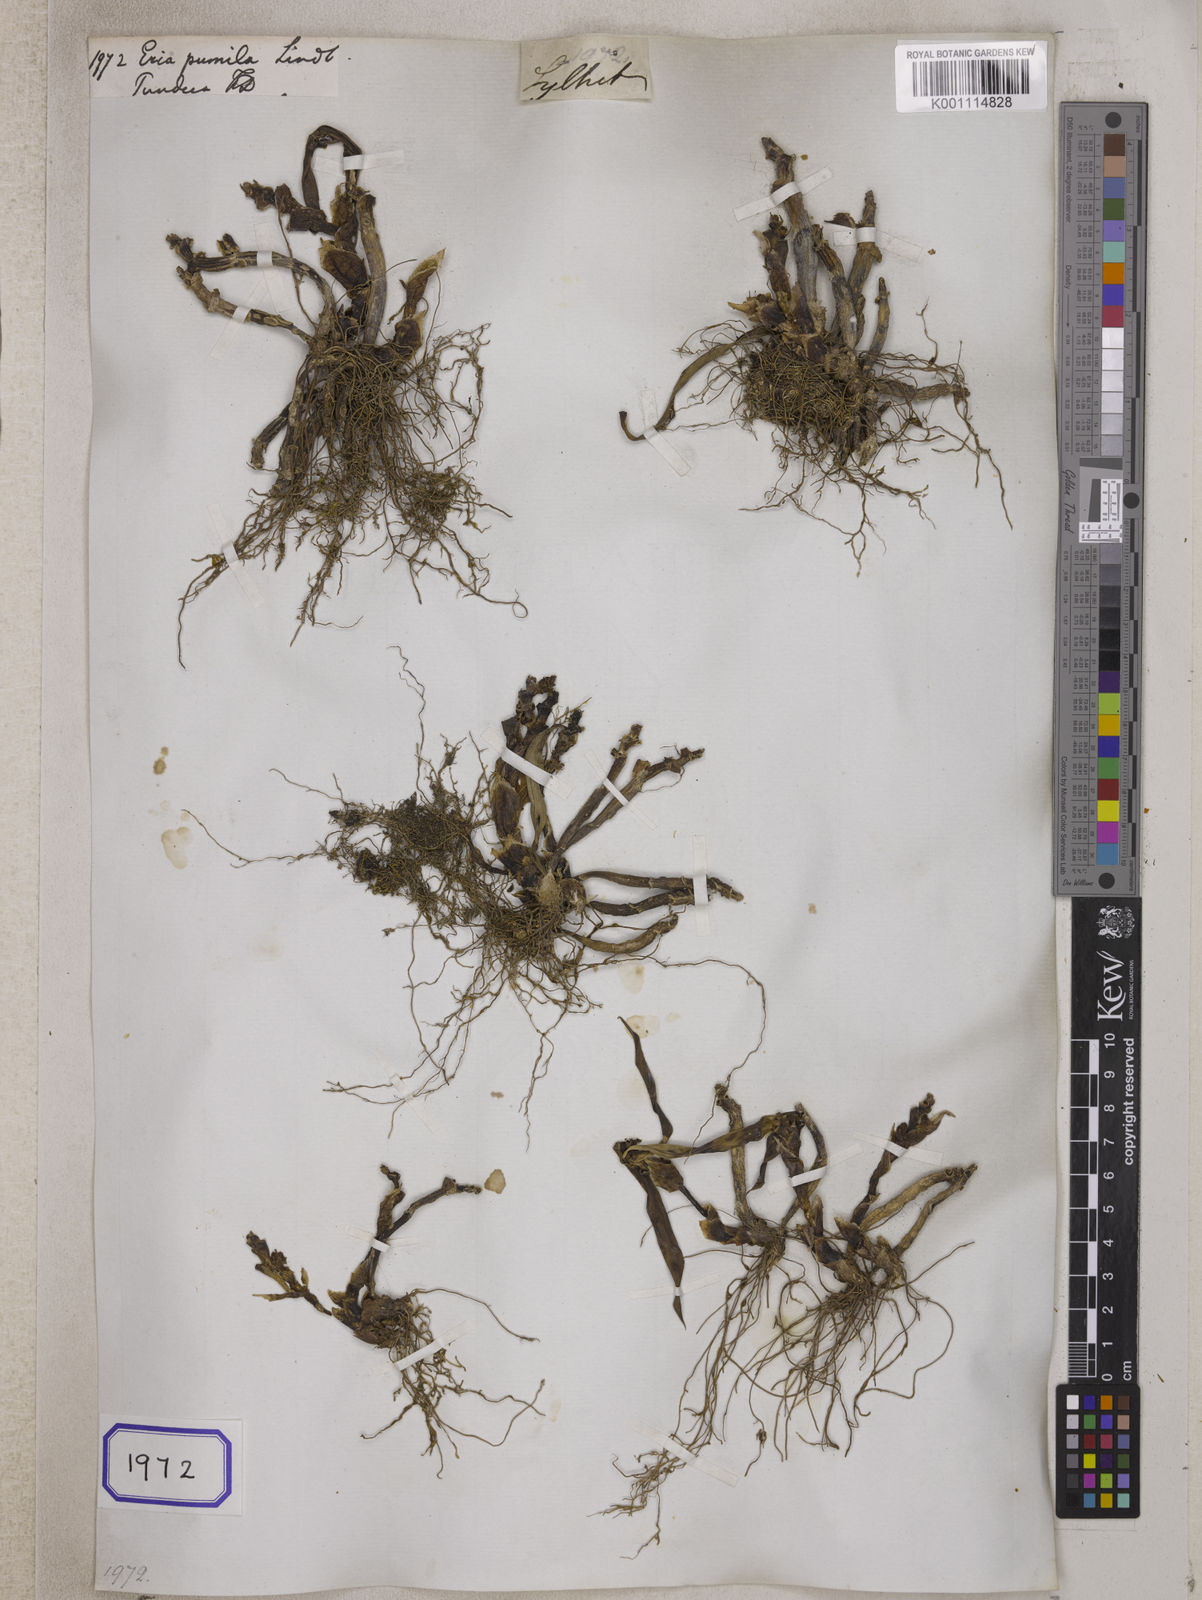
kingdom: Plantae
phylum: Tracheophyta
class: Liliopsida
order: Asparagales
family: Orchidaceae
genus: Eria
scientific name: Eria
